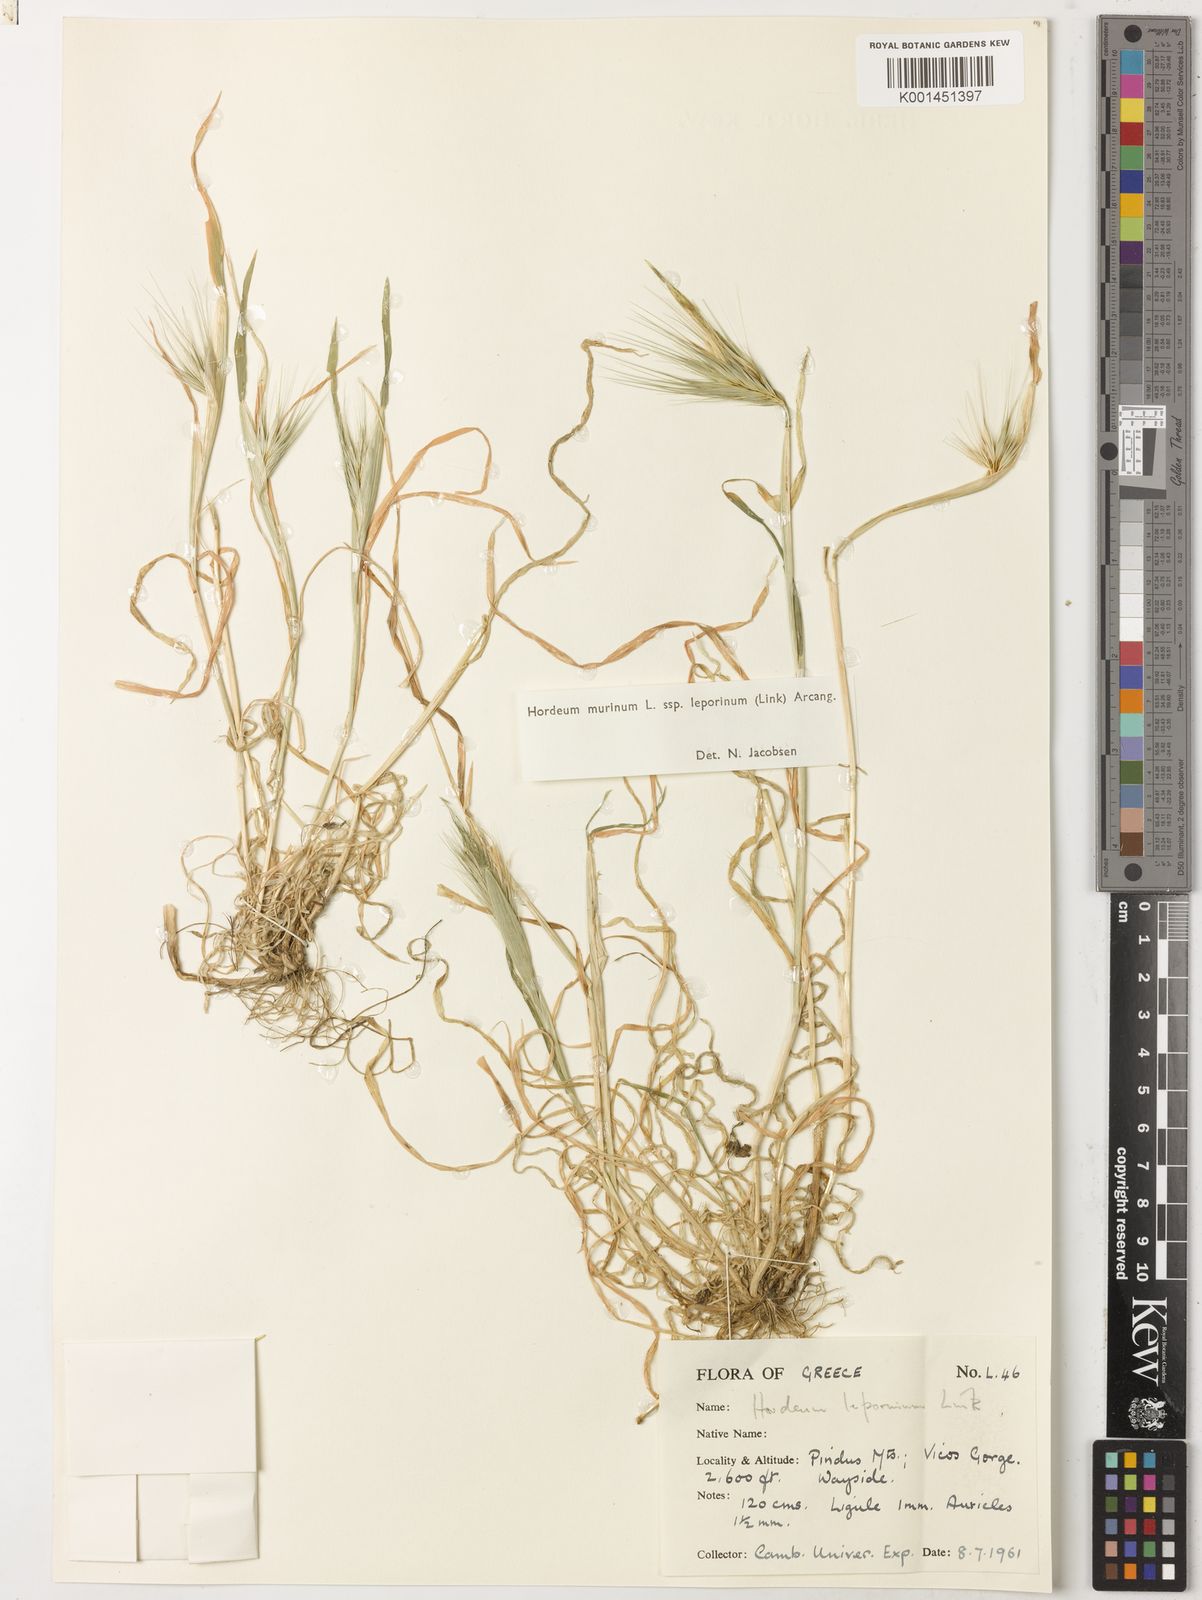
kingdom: Plantae
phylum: Tracheophyta
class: Liliopsida
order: Poales
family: Poaceae
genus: Hordeum
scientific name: Hordeum murinum
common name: Wall barley
